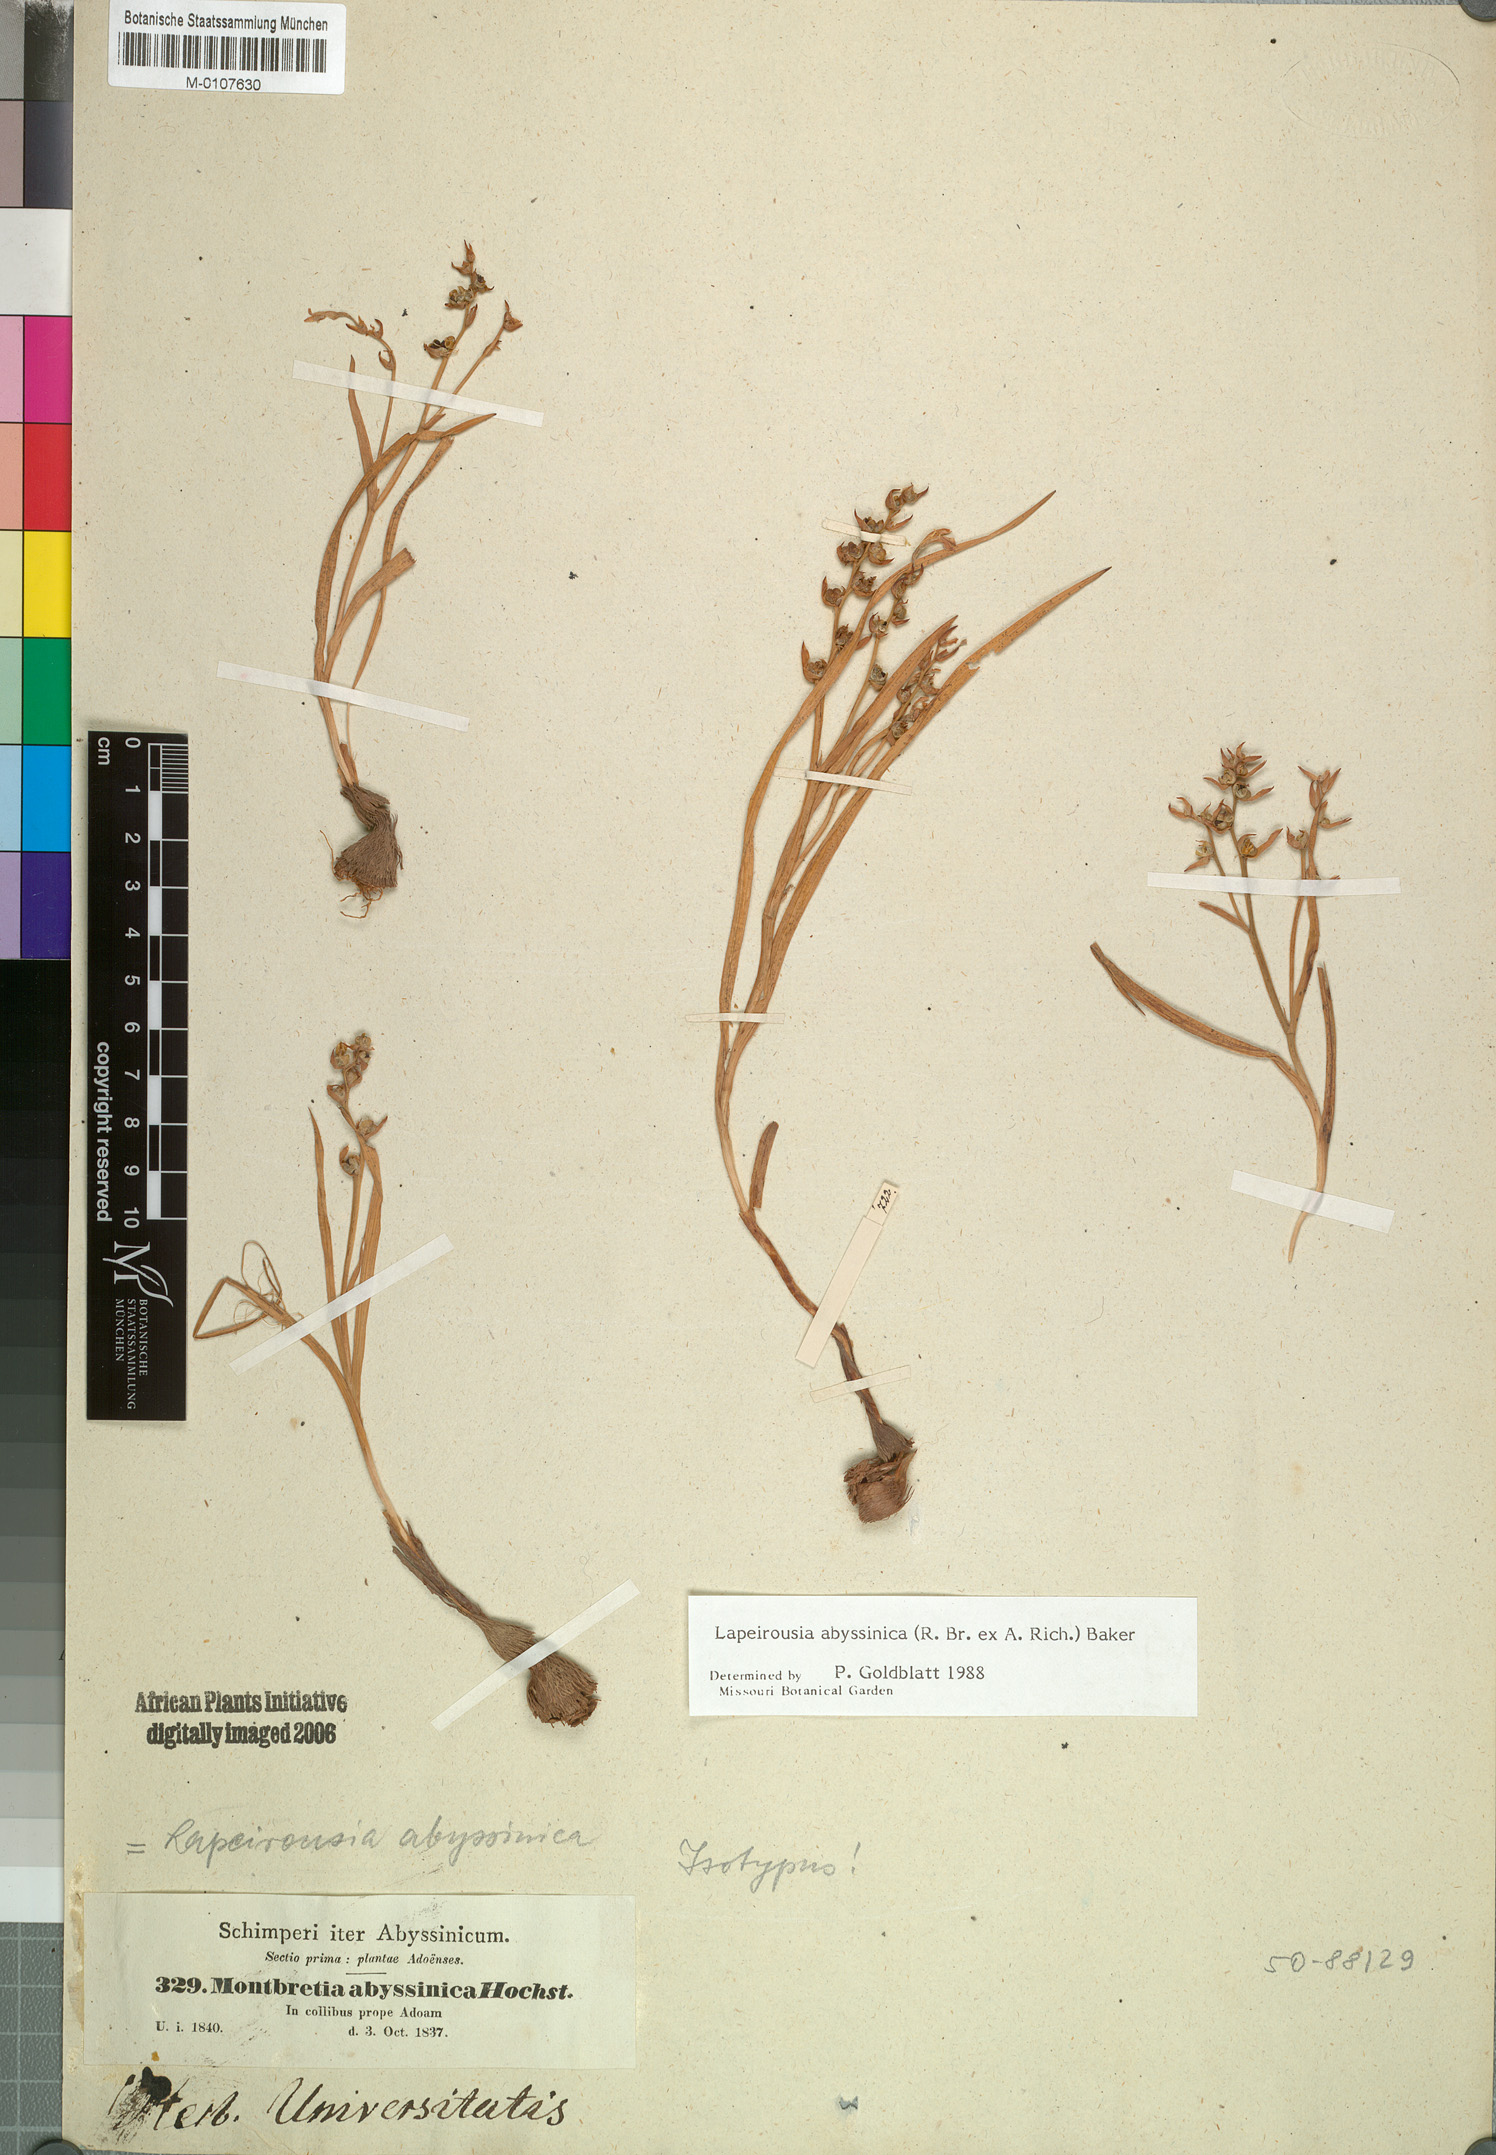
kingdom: Plantae
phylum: Tracheophyta
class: Liliopsida
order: Asparagales
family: Iridaceae
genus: Afrosolen
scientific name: Afrosolen abyssinicus
